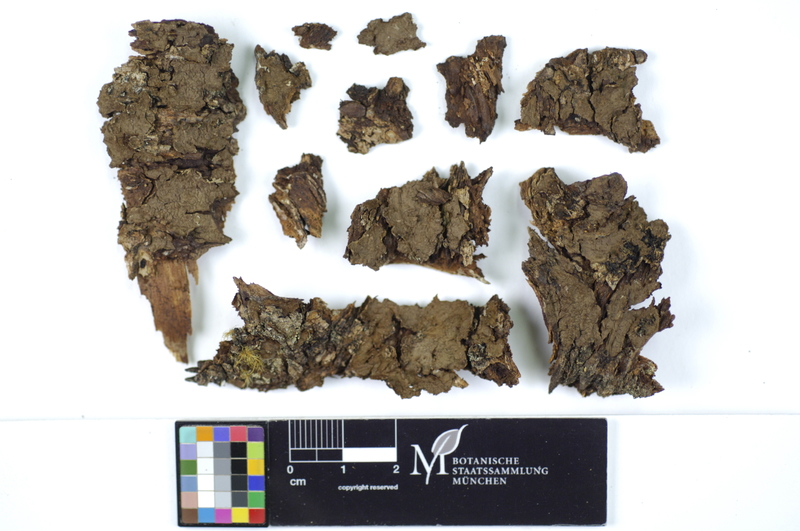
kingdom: Plantae
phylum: Tracheophyta
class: Pinopsida
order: Pinales
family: Pinaceae
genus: Picea
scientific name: Picea
